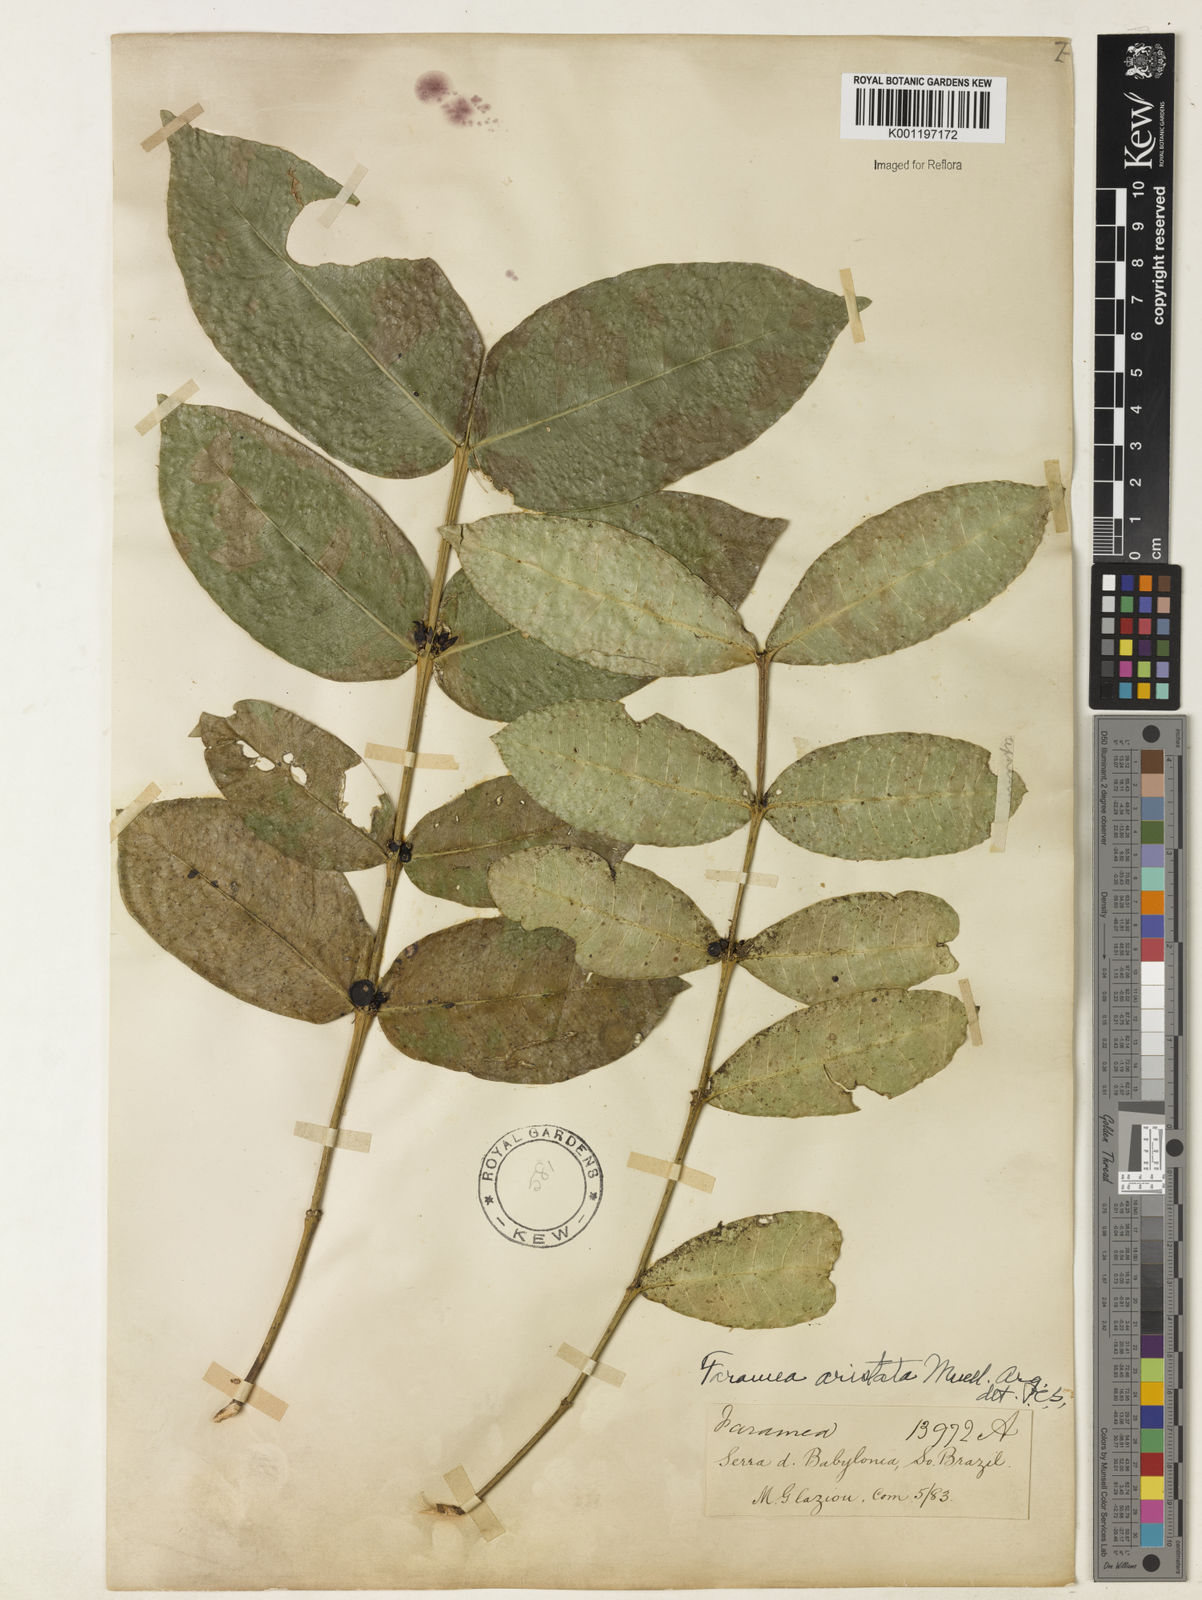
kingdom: Plantae
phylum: Tracheophyta
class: Magnoliopsida
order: Gentianales
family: Rubiaceae
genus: Faramea
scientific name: Faramea
